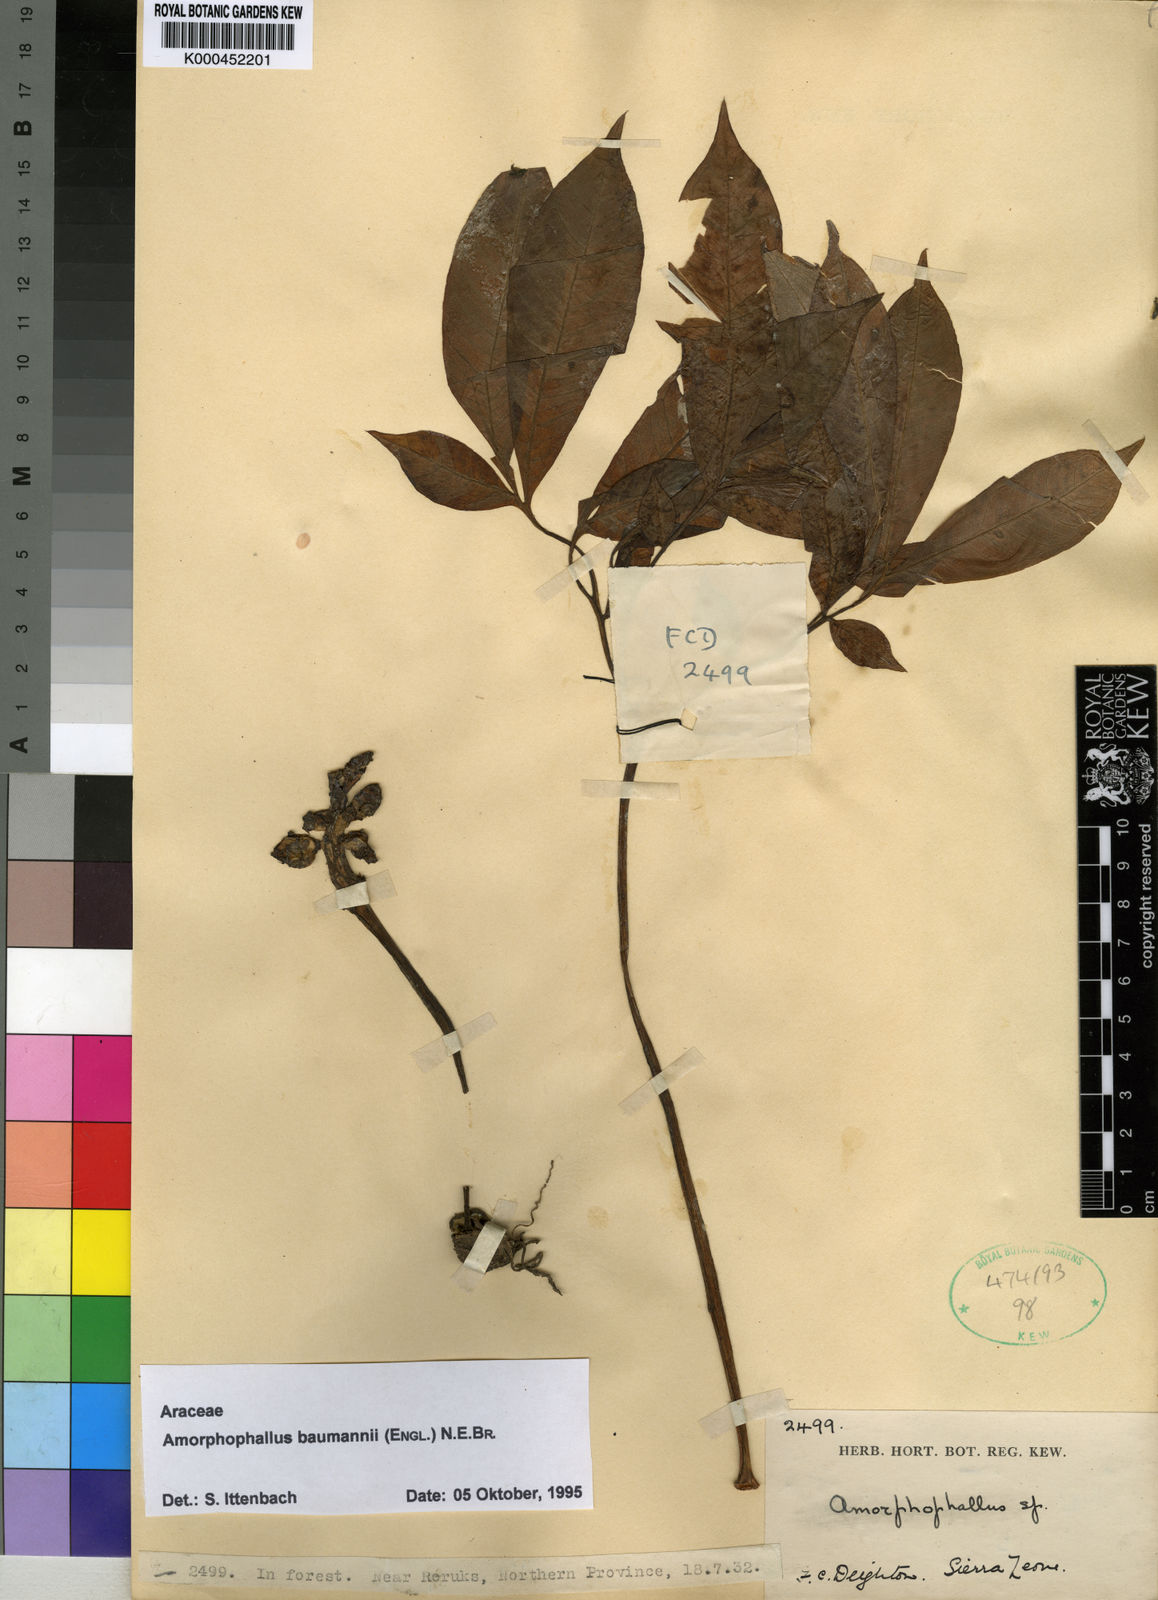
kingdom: Plantae
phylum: Tracheophyta
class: Liliopsida
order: Alismatales
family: Araceae
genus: Amorphophallus
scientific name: Amorphophallus baumannii
